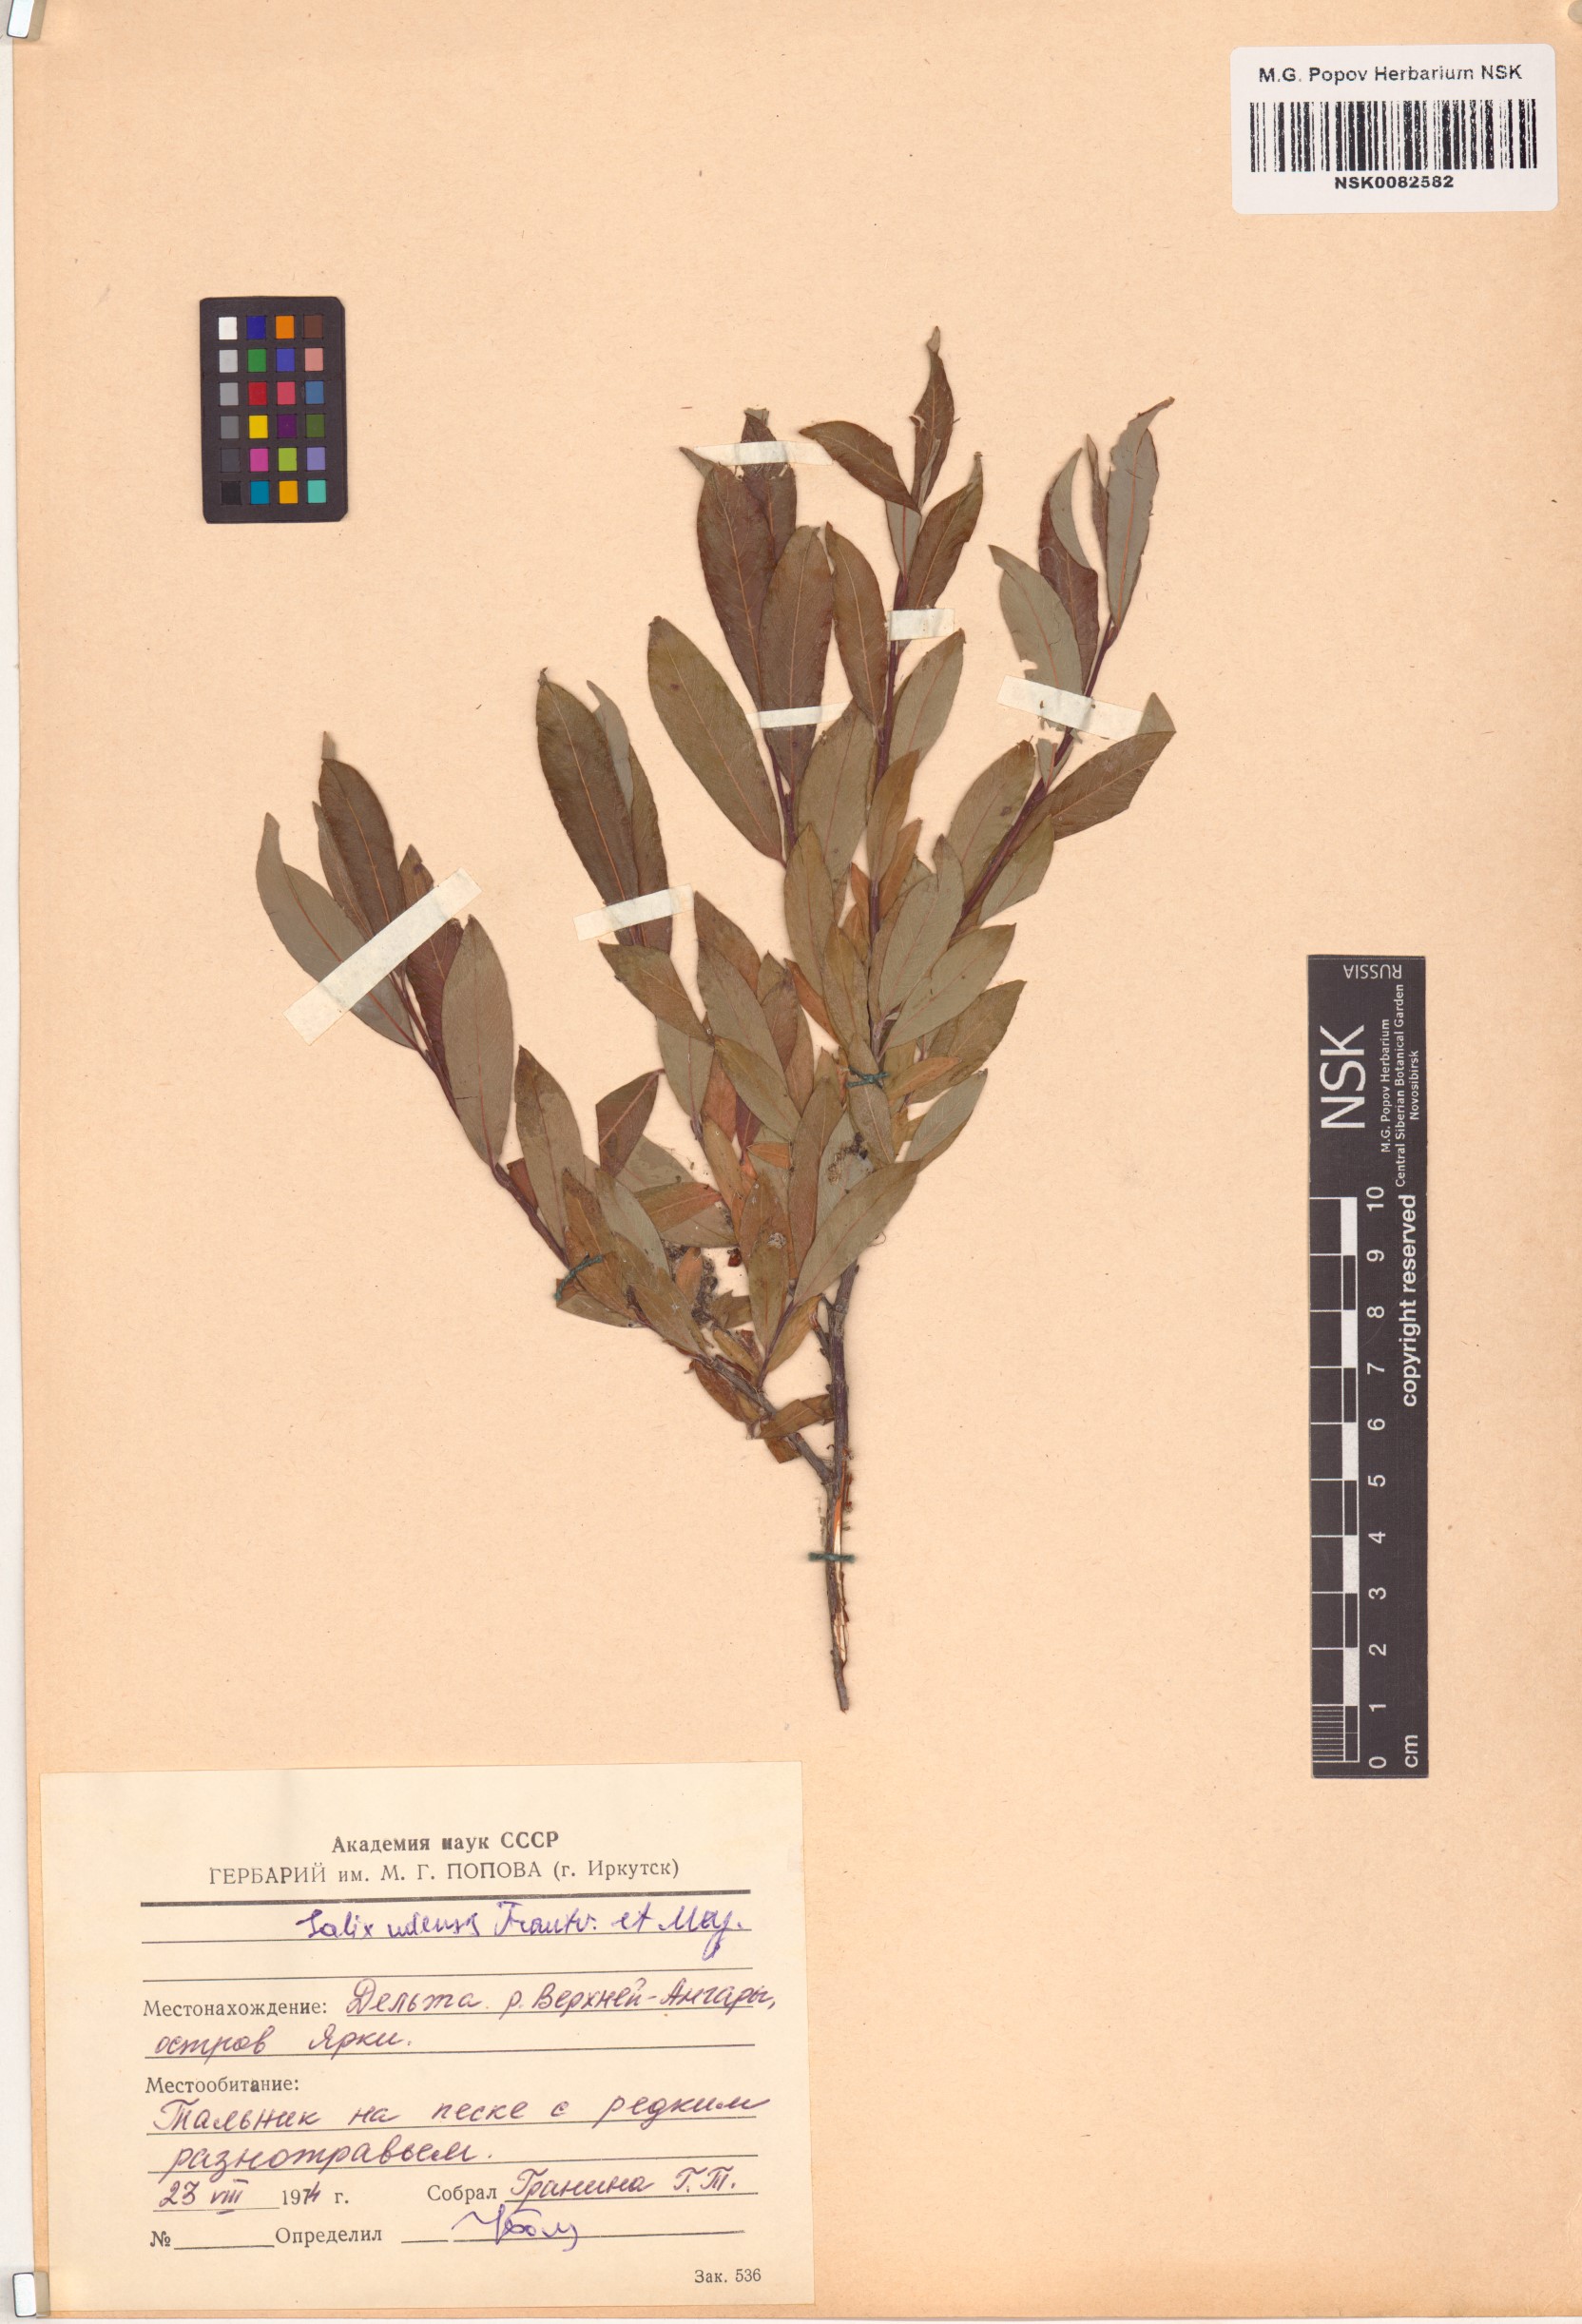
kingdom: Plantae
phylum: Tracheophyta
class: Magnoliopsida
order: Malpighiales
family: Salicaceae
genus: Salix
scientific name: Salix udensis
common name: Sachalin willow
